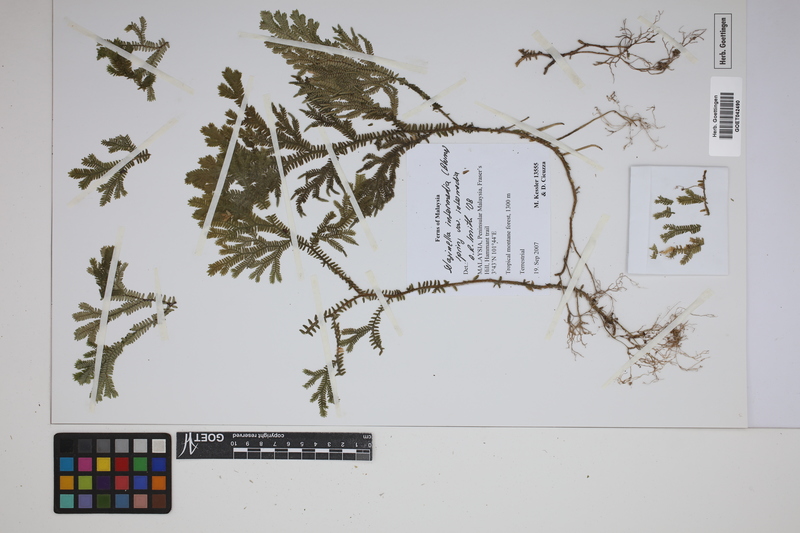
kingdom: Plantae
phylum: Tracheophyta
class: Lycopodiopsida
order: Selaginellales
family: Selaginellaceae
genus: Selaginella
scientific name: Selaginella intermedia
